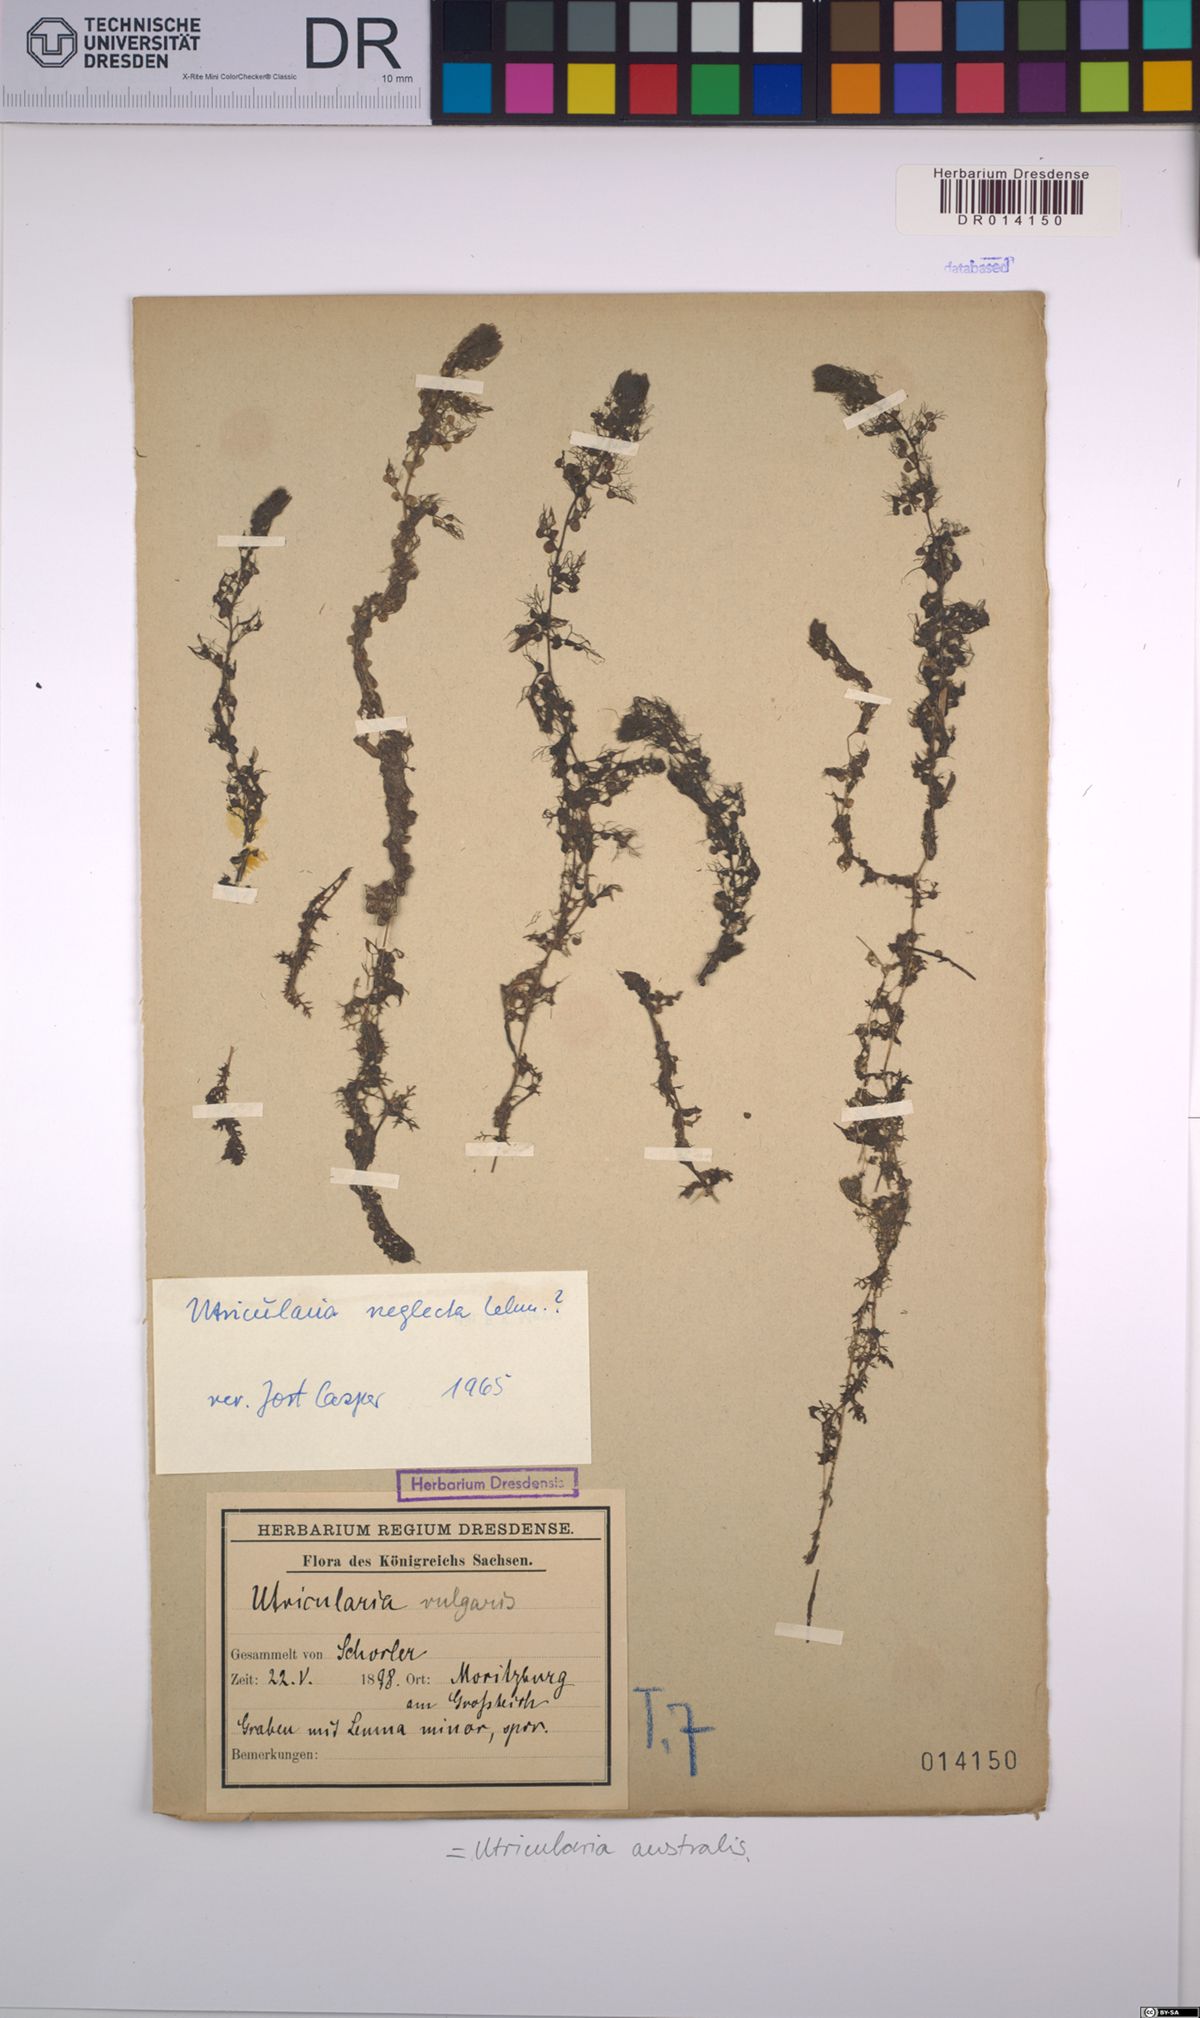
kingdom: Plantae
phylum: Tracheophyta
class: Magnoliopsida
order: Lamiales
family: Lentibulariaceae
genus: Utricularia
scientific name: Utricularia australis
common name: Bladderwort
